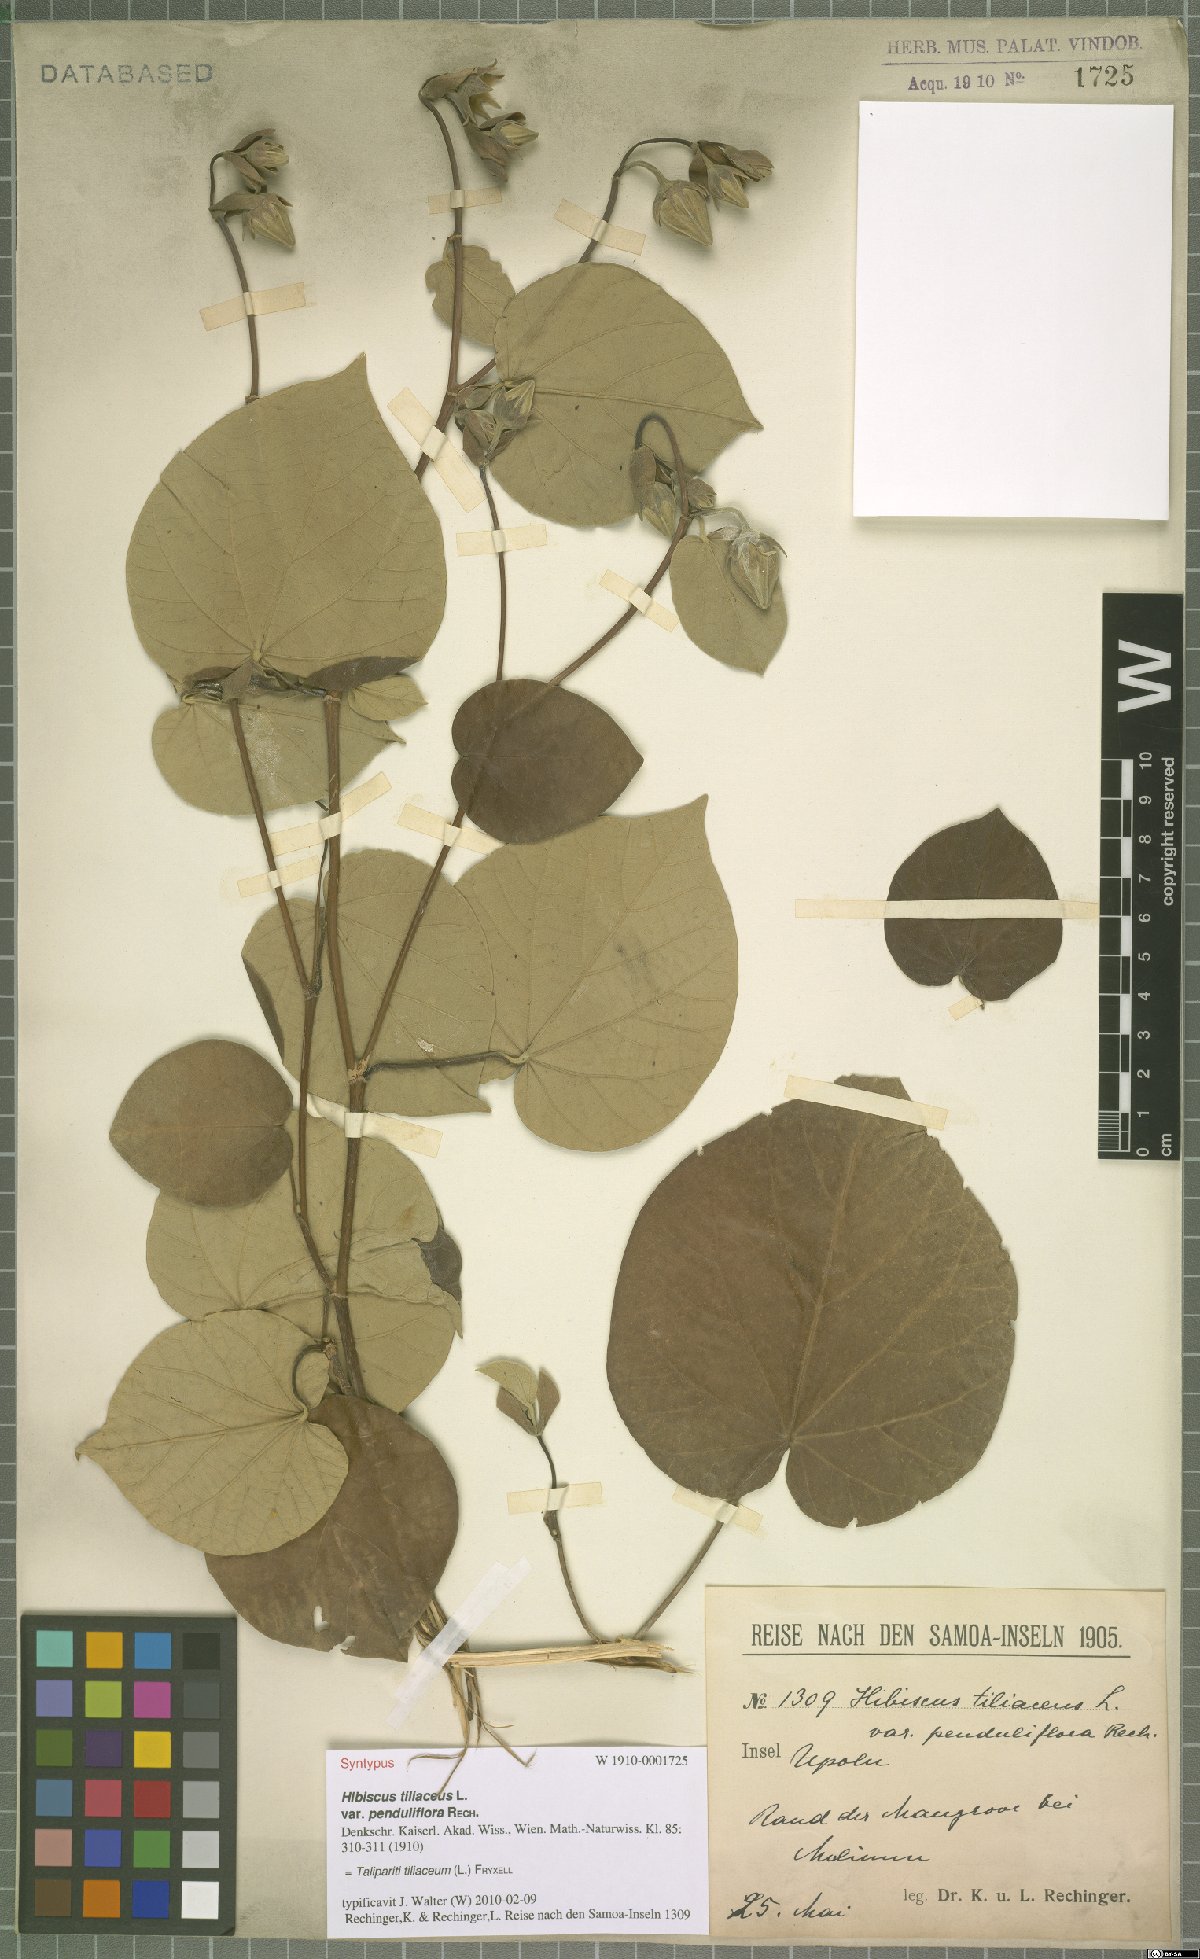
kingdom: Plantae
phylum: Tracheophyta
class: Magnoliopsida
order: Malvales
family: Malvaceae
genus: Talipariti
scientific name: Talipariti tiliaceum
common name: Sea hibiscus
